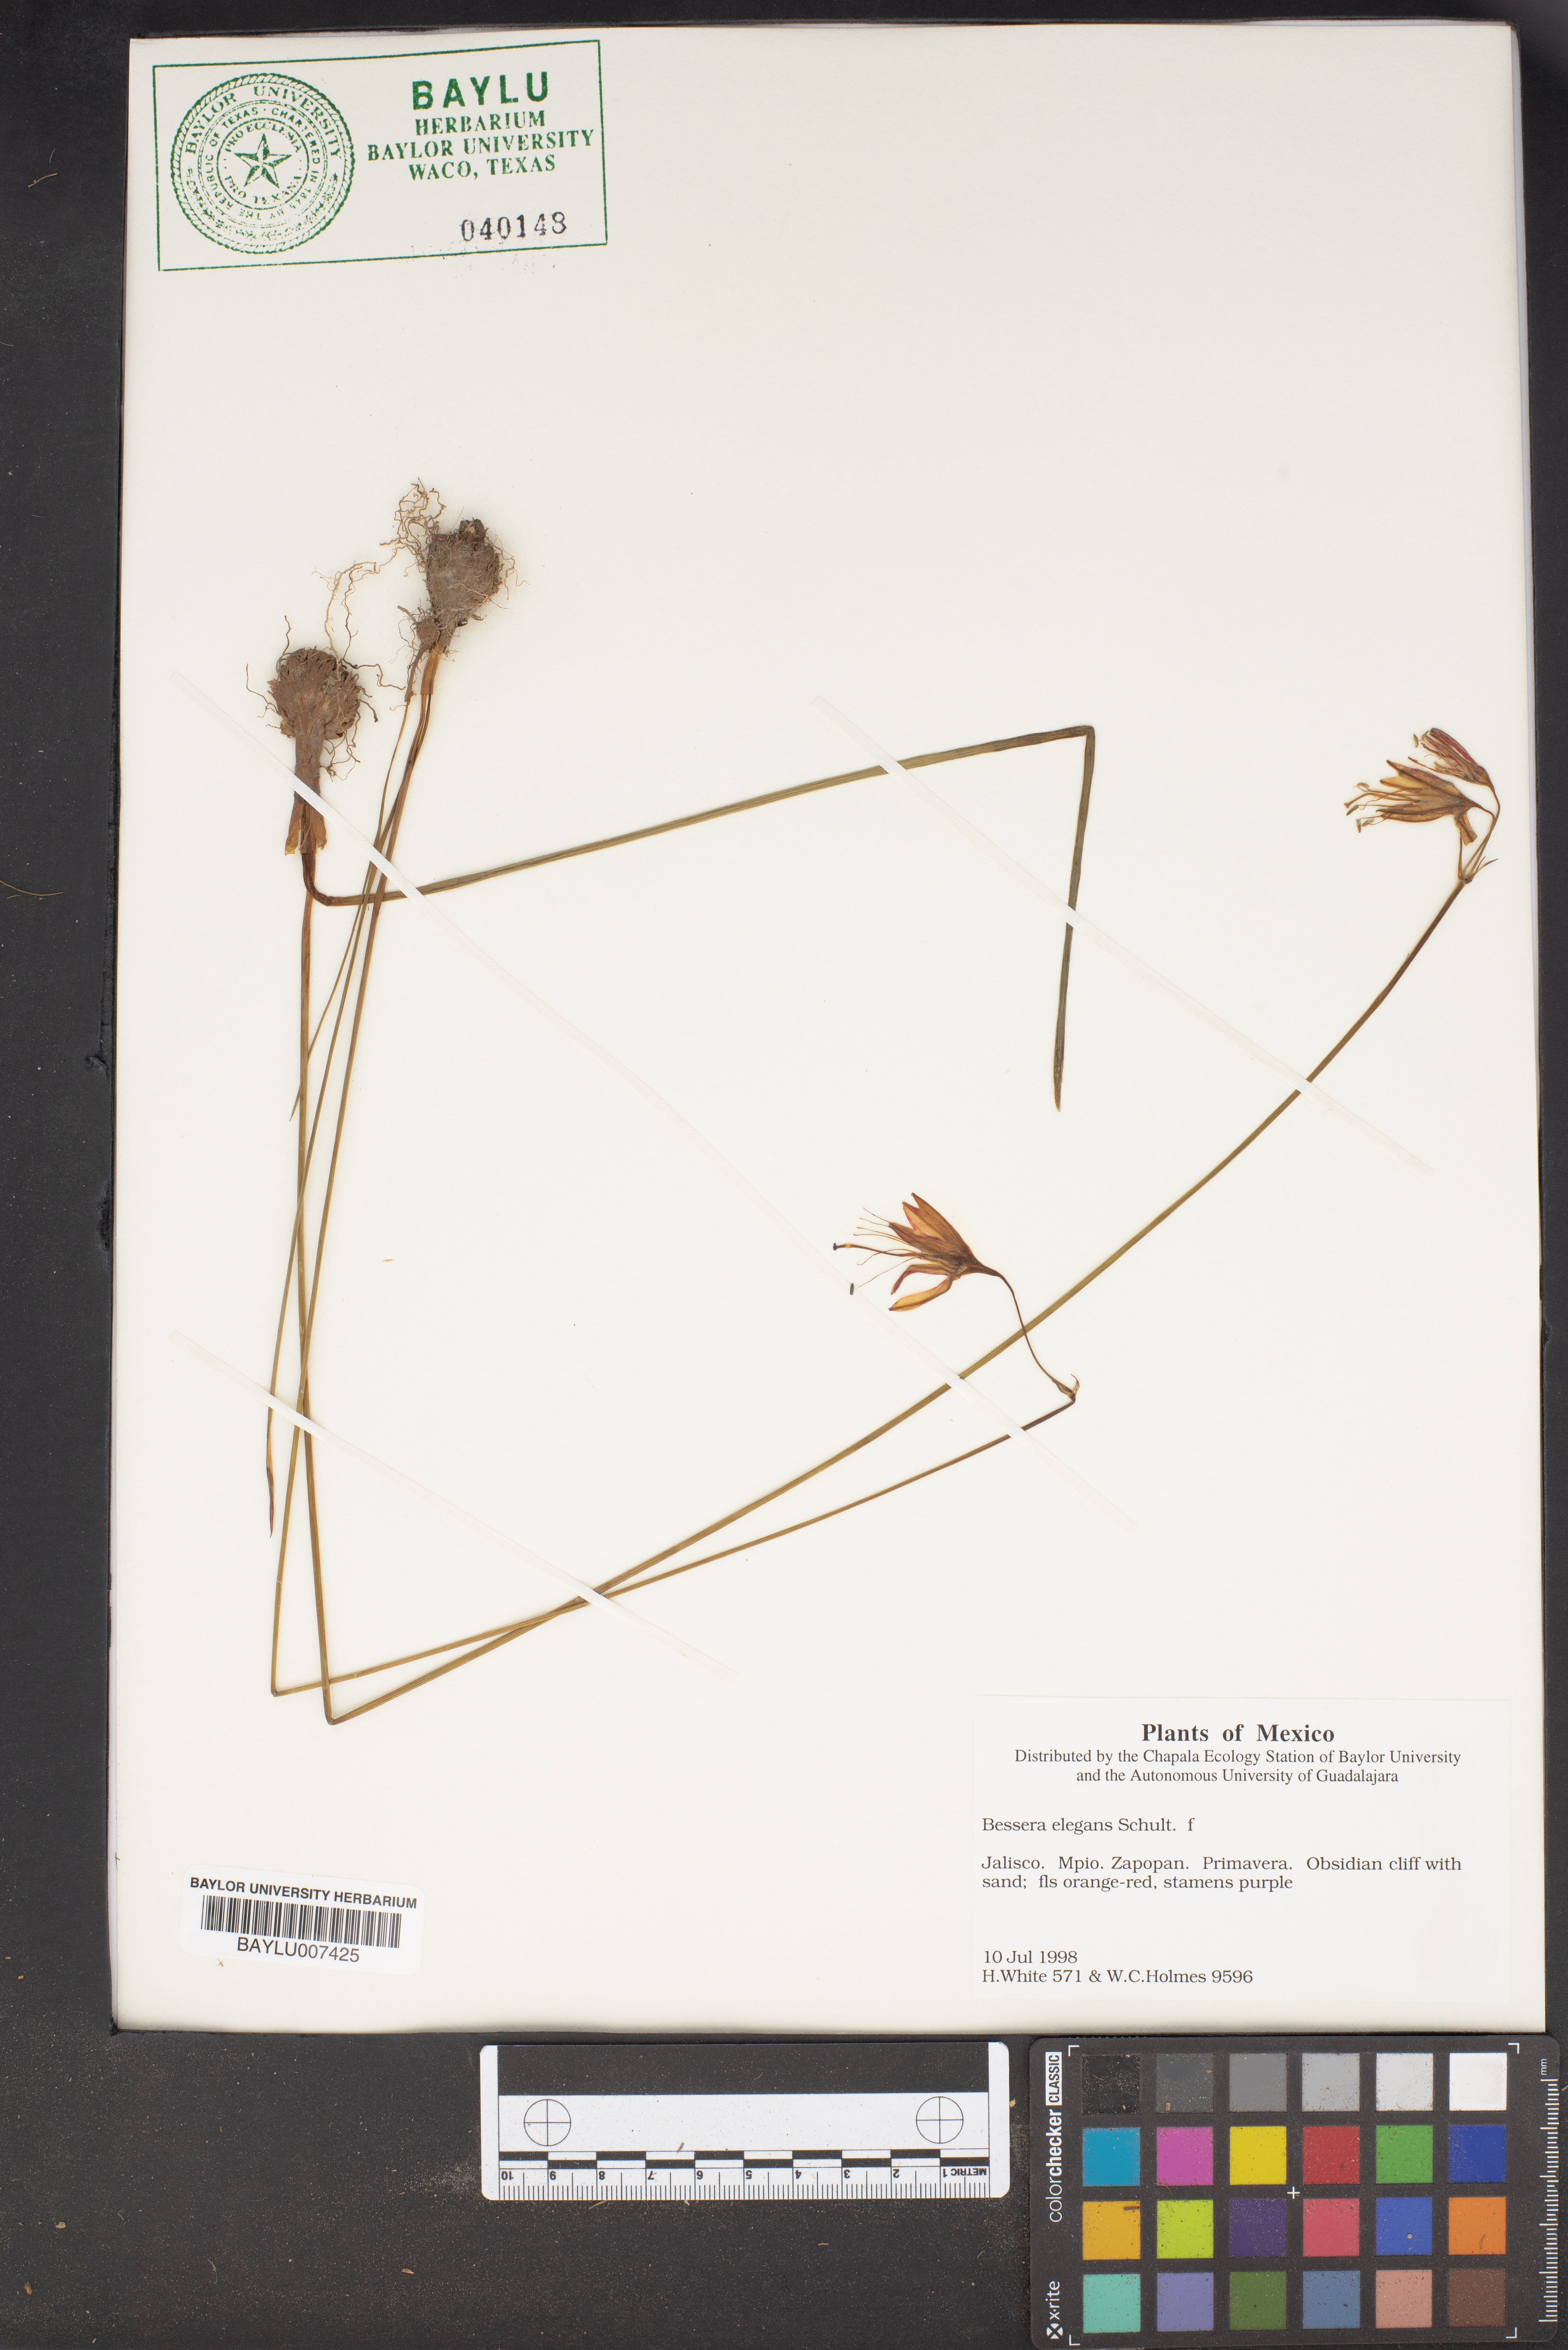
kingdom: Plantae
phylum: Tracheophyta
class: Liliopsida
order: Asparagales
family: Asparagaceae
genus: Bessera
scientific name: Bessera elegans
